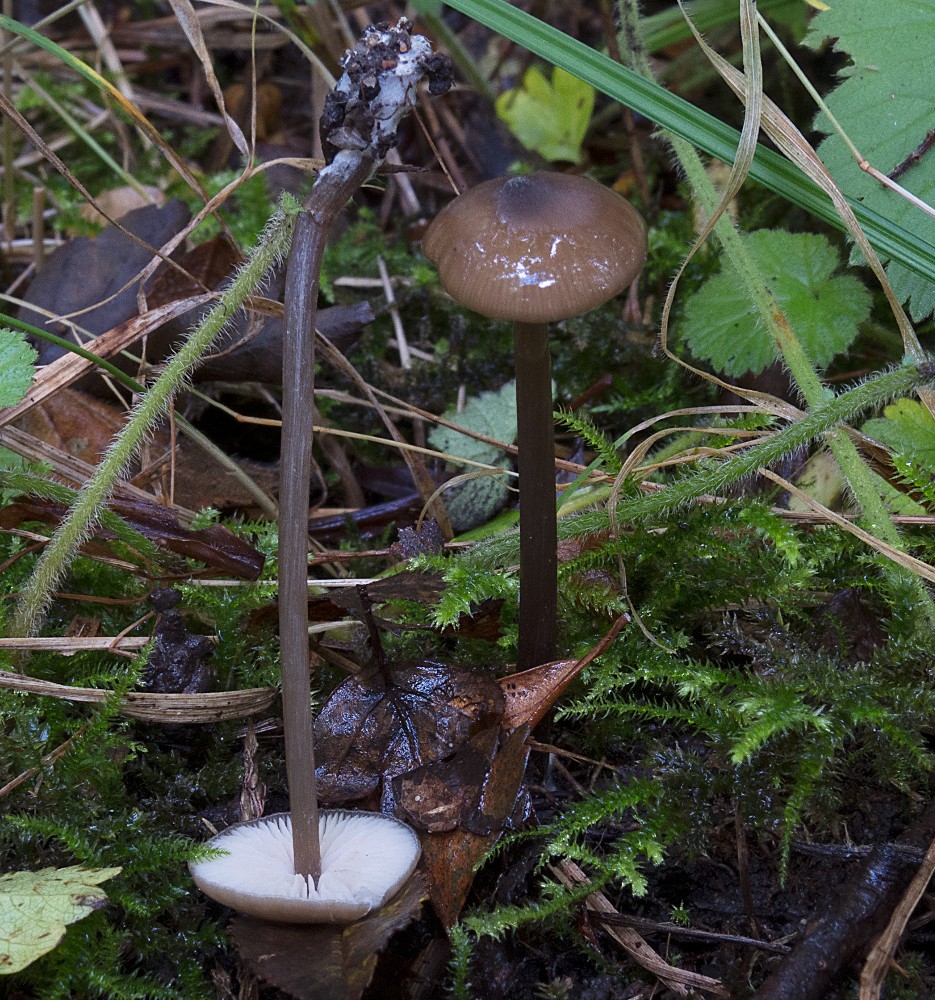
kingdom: Fungi
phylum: Basidiomycota
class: Agaricomycetes
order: Agaricales
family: Entolomataceae
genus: Entoloma
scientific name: Entoloma hebes
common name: krat-rødblad
